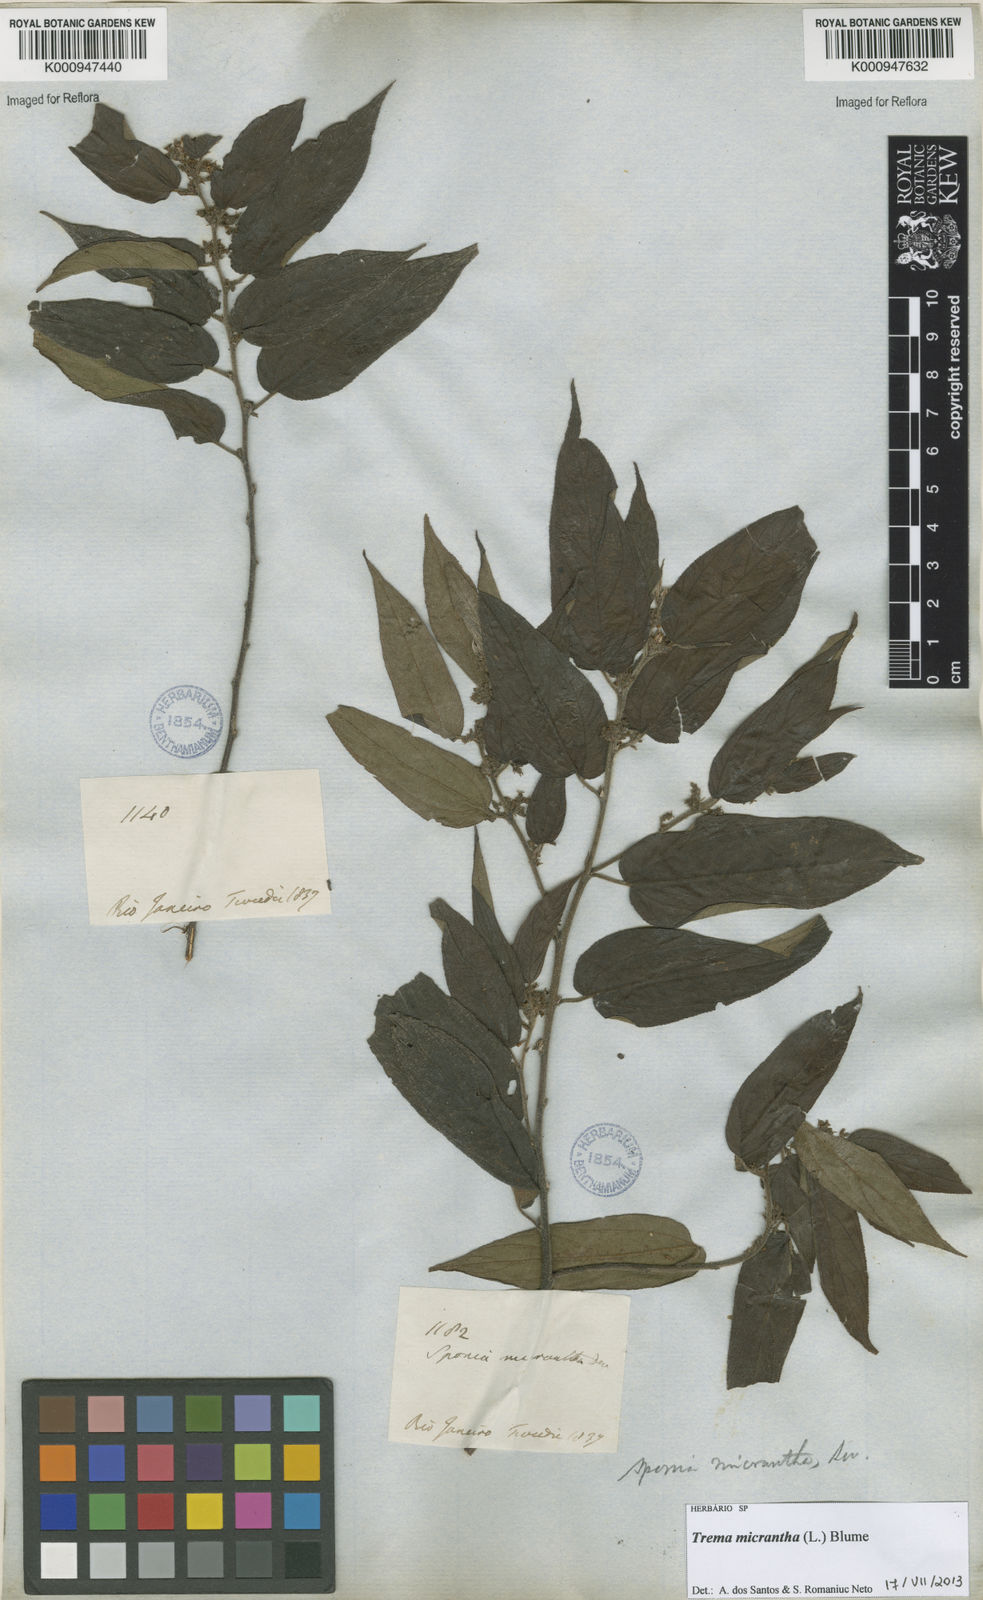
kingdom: Plantae
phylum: Tracheophyta
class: Magnoliopsida
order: Rosales
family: Cannabaceae
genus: Trema
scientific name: Trema micranthum
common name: Jamaican nettletree
